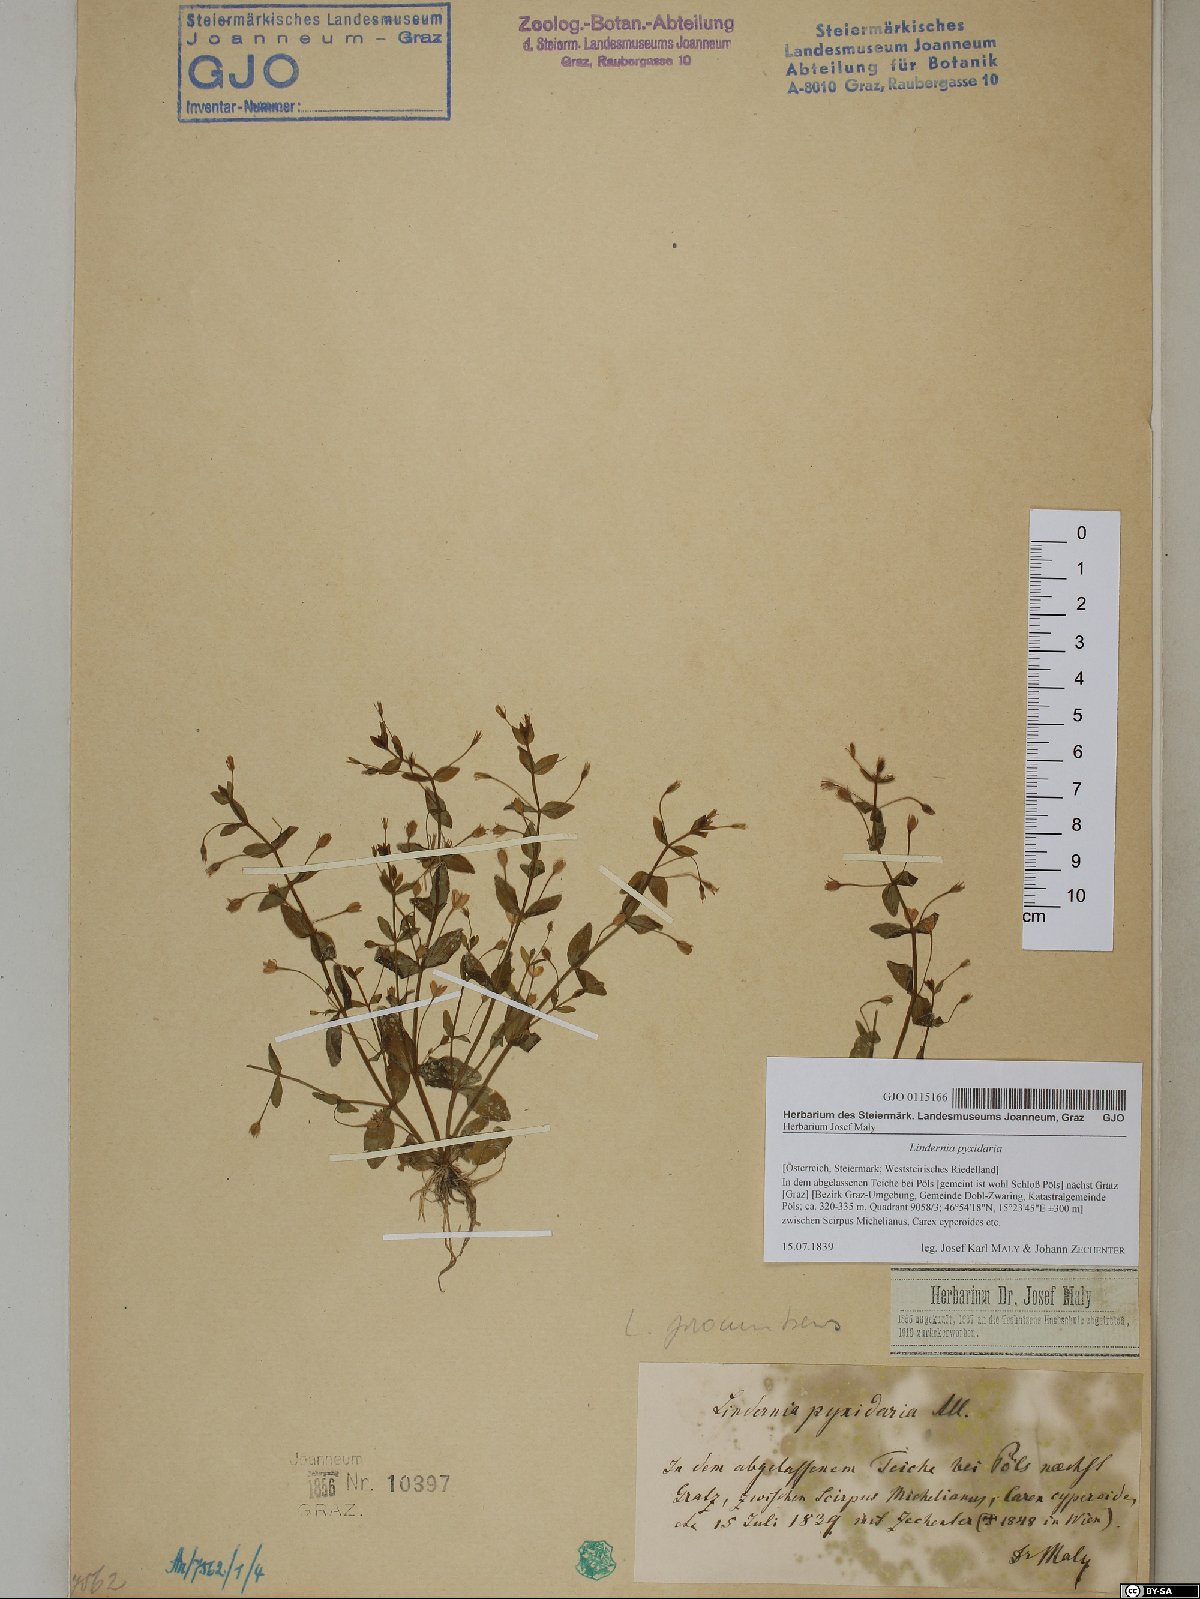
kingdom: Plantae
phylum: Tracheophyta
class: Magnoliopsida
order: Lamiales
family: Linderniaceae
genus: Lindernia
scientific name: Lindernia dubia
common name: Annual false pimpernel
